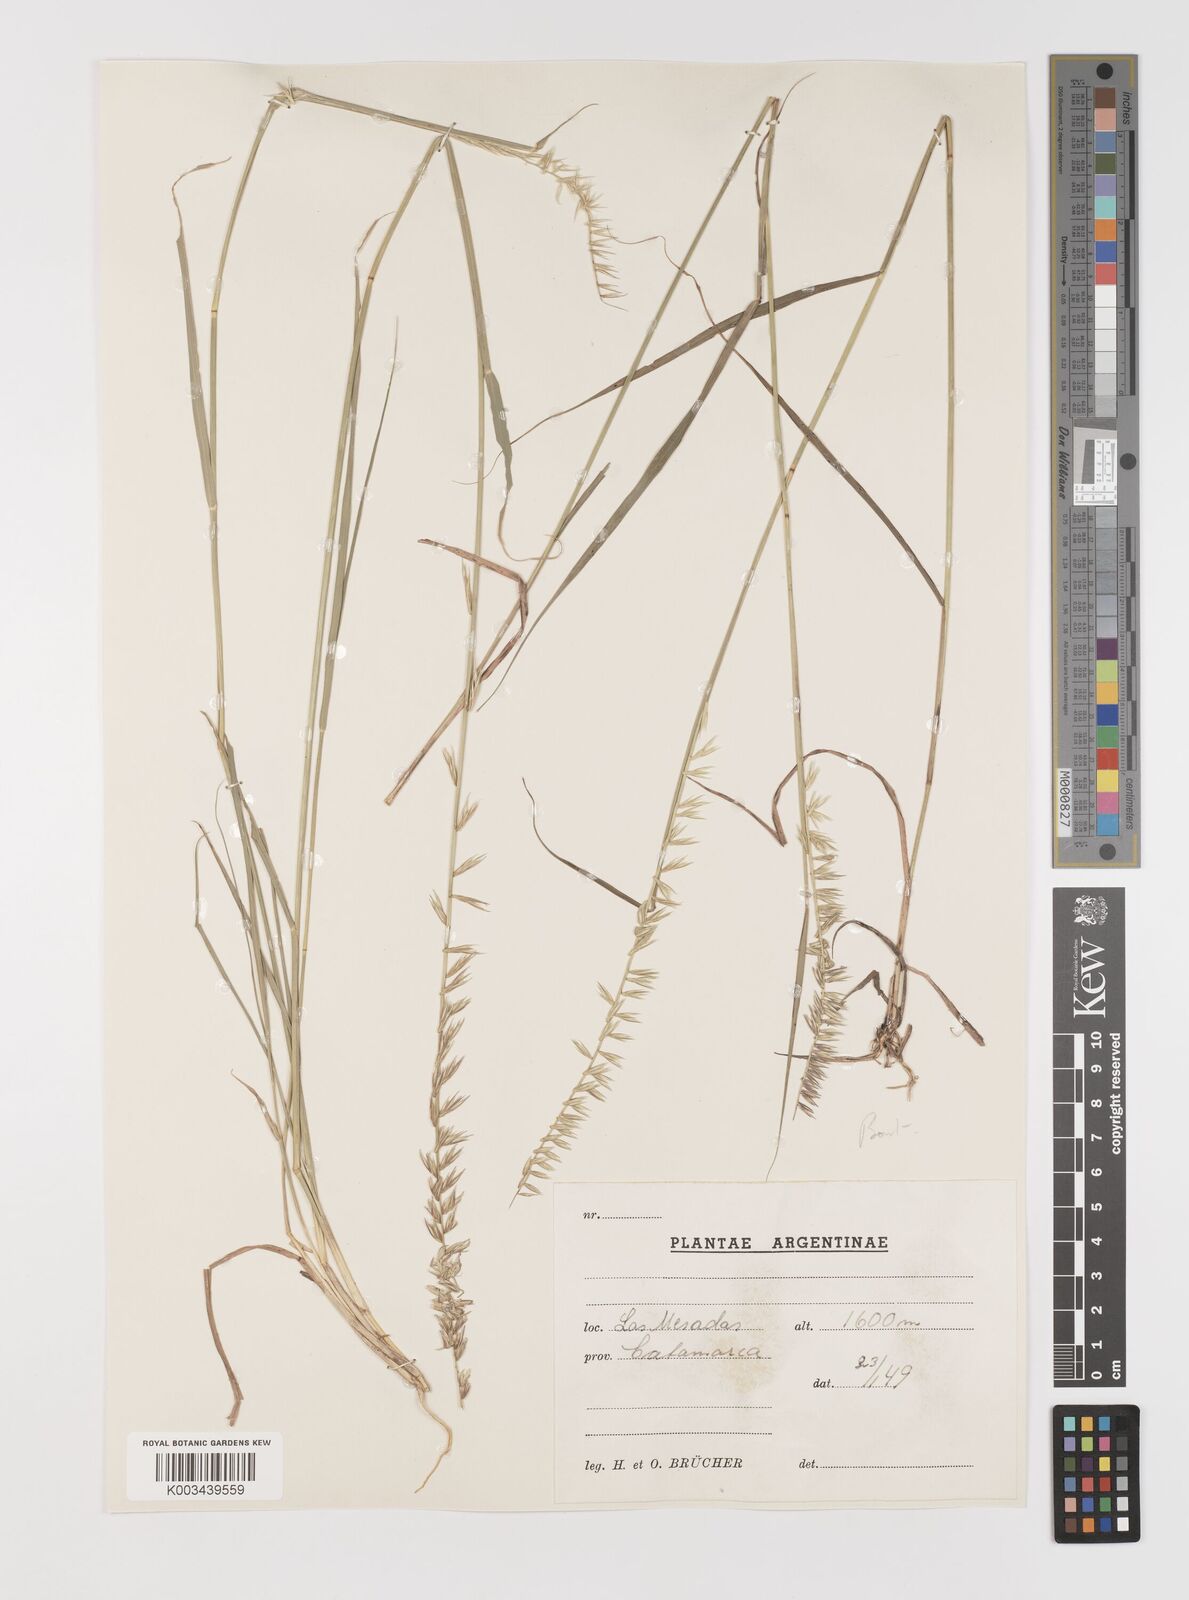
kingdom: Plantae
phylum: Tracheophyta
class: Liliopsida
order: Poales
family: Poaceae
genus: Bouteloua
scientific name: Bouteloua curtipendula
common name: Side-oats grama
